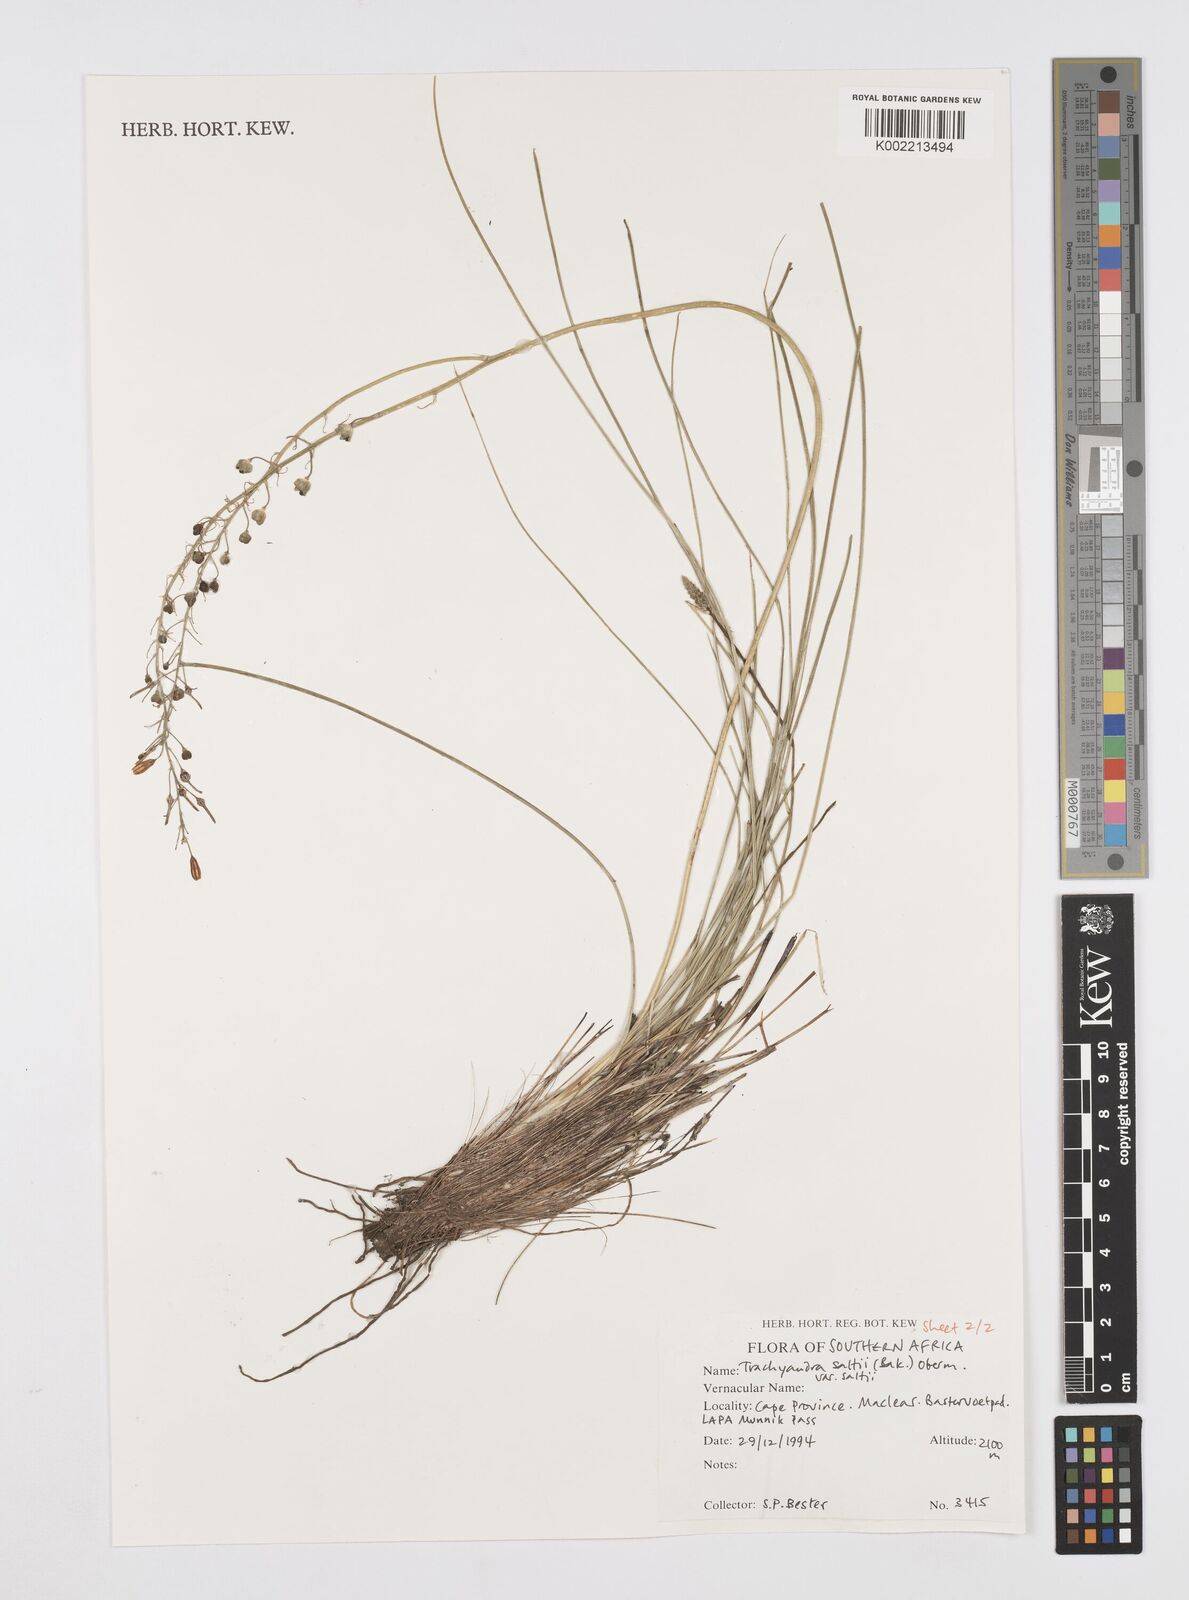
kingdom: Plantae
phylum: Tracheophyta
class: Liliopsida
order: Asparagales
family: Asphodelaceae
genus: Trachyandra
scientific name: Trachyandra saltii
